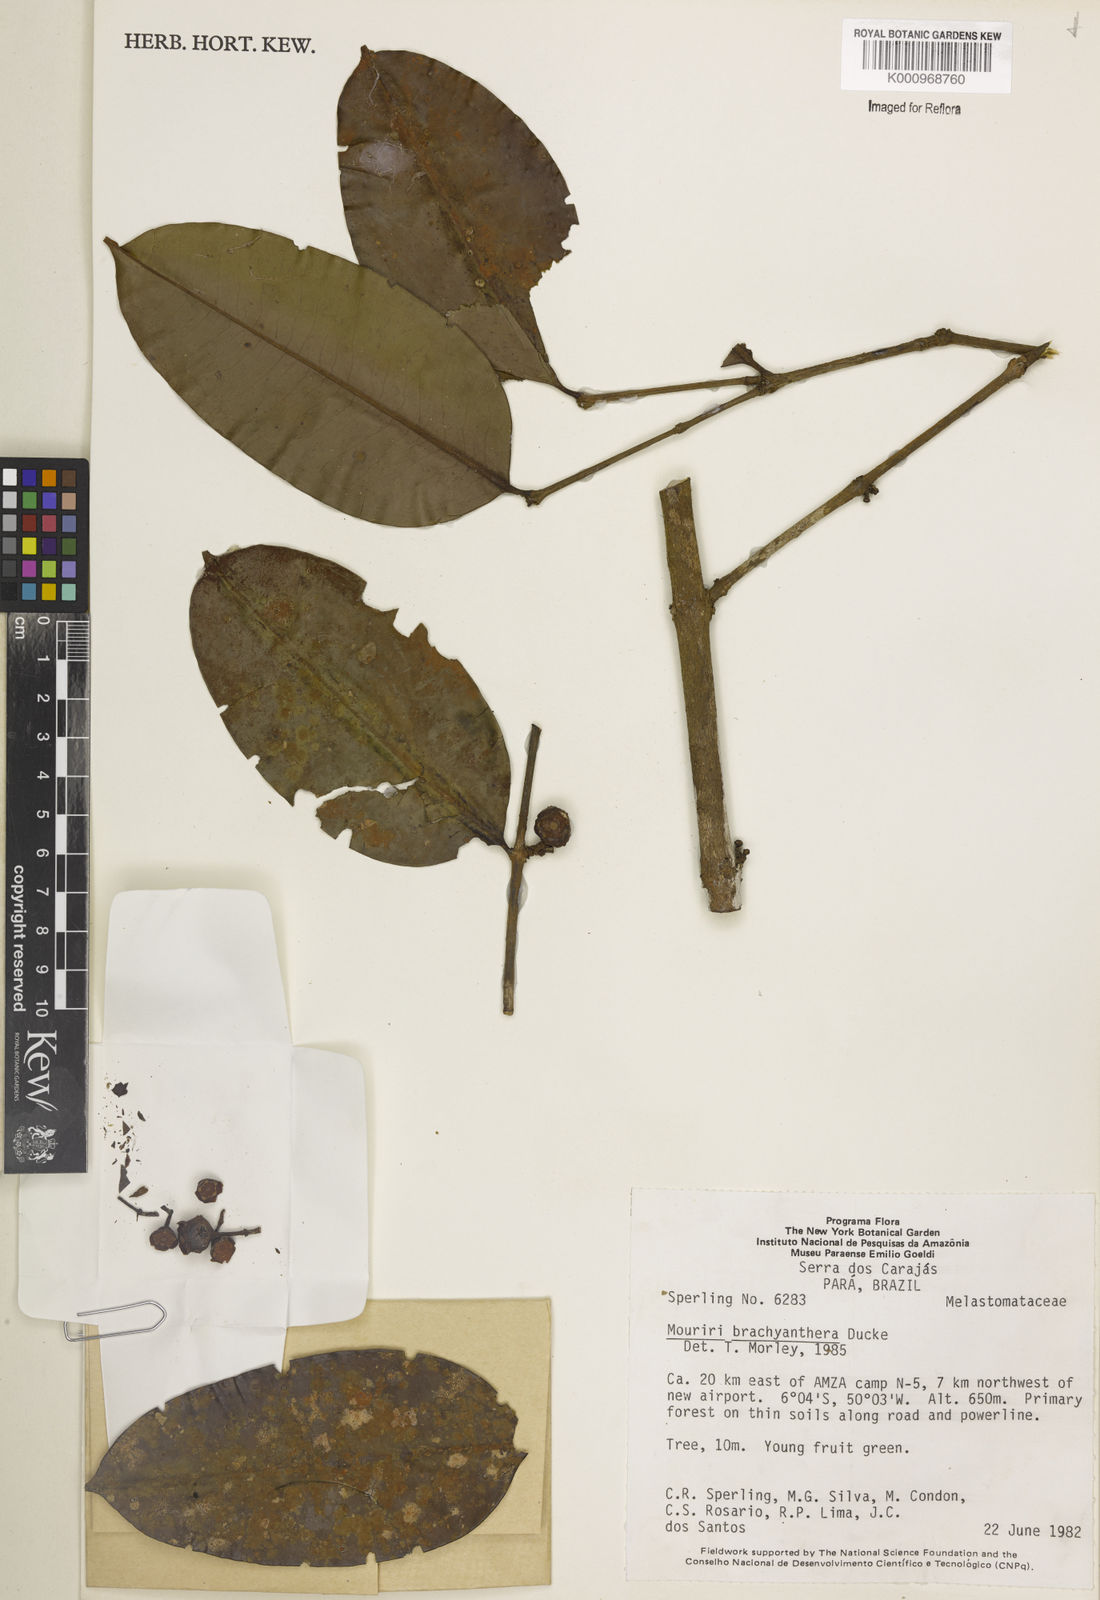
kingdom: Plantae
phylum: Tracheophyta
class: Magnoliopsida
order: Myrtales
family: Melastomataceae
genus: Mouriri
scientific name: Mouriri brachyanthera
